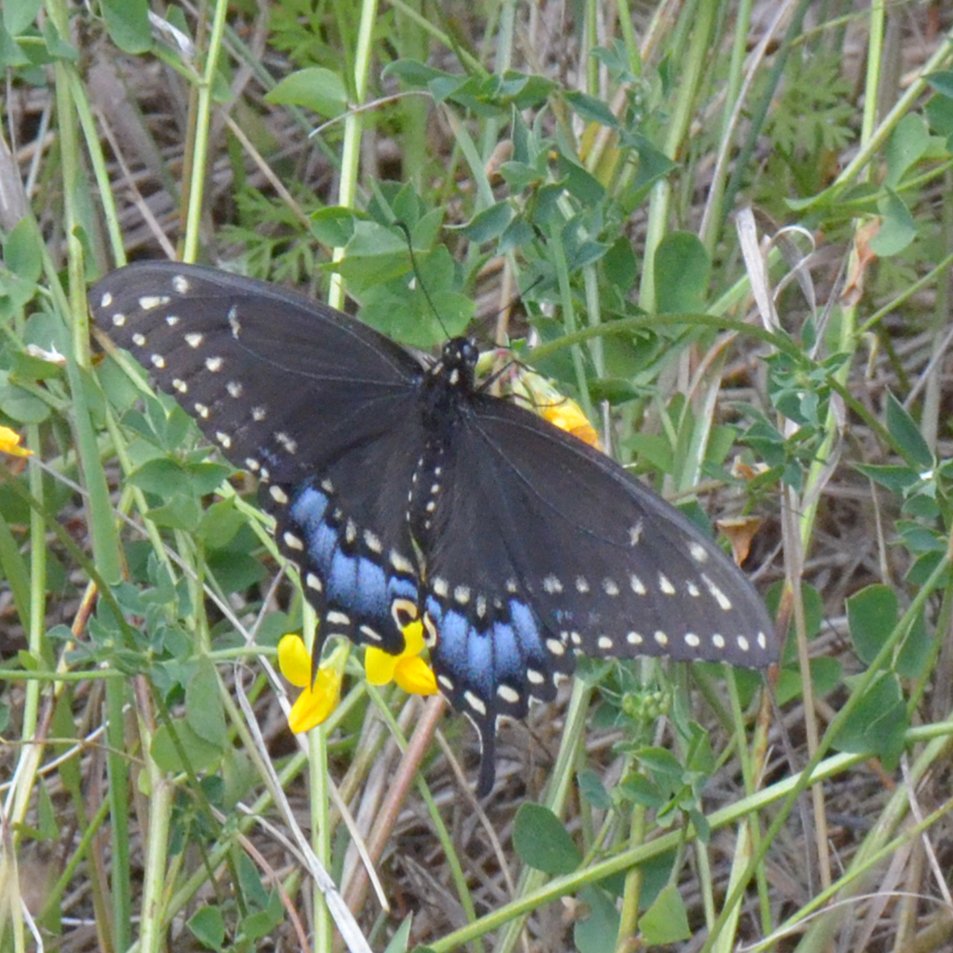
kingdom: Animalia
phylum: Arthropoda
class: Insecta
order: Lepidoptera
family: Papilionidae
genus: Papilio
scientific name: Papilio polyxenes
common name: Black Swallowtail
